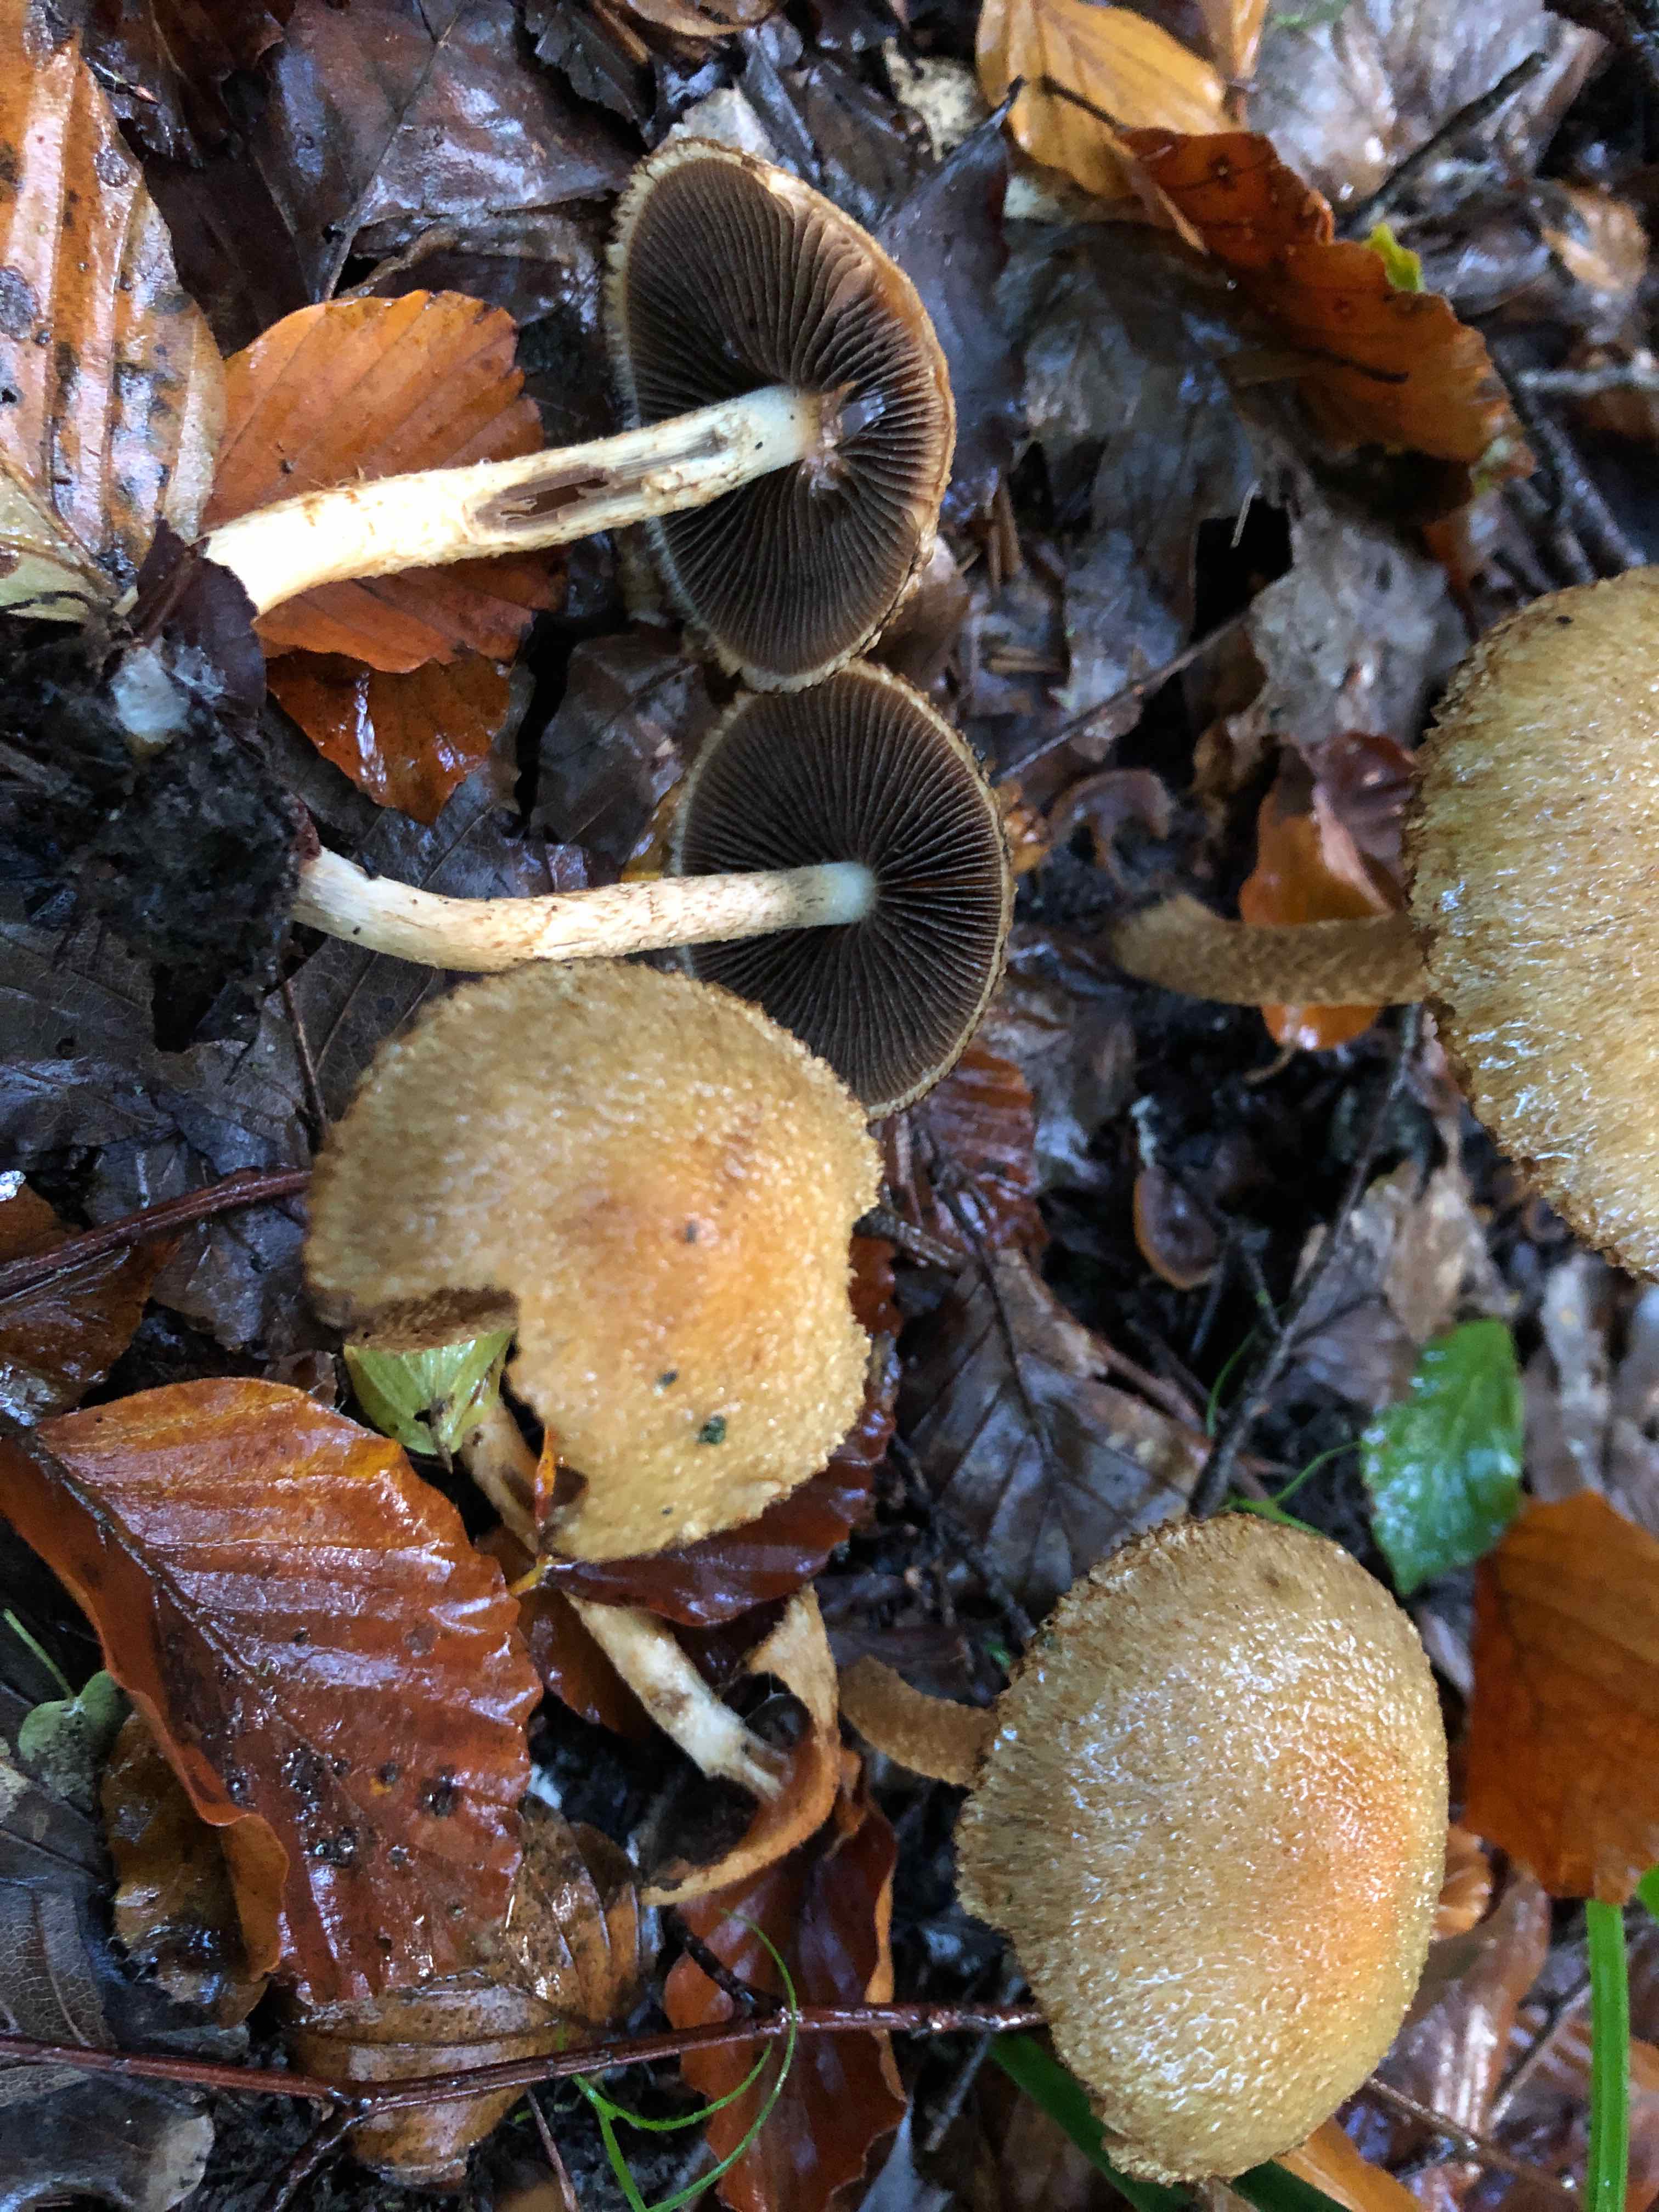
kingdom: Fungi
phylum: Basidiomycota
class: Agaricomycetes
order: Agaricales
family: Psathyrellaceae
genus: Lacrymaria
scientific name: Lacrymaria lacrymabunda
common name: grædende mørkhat
